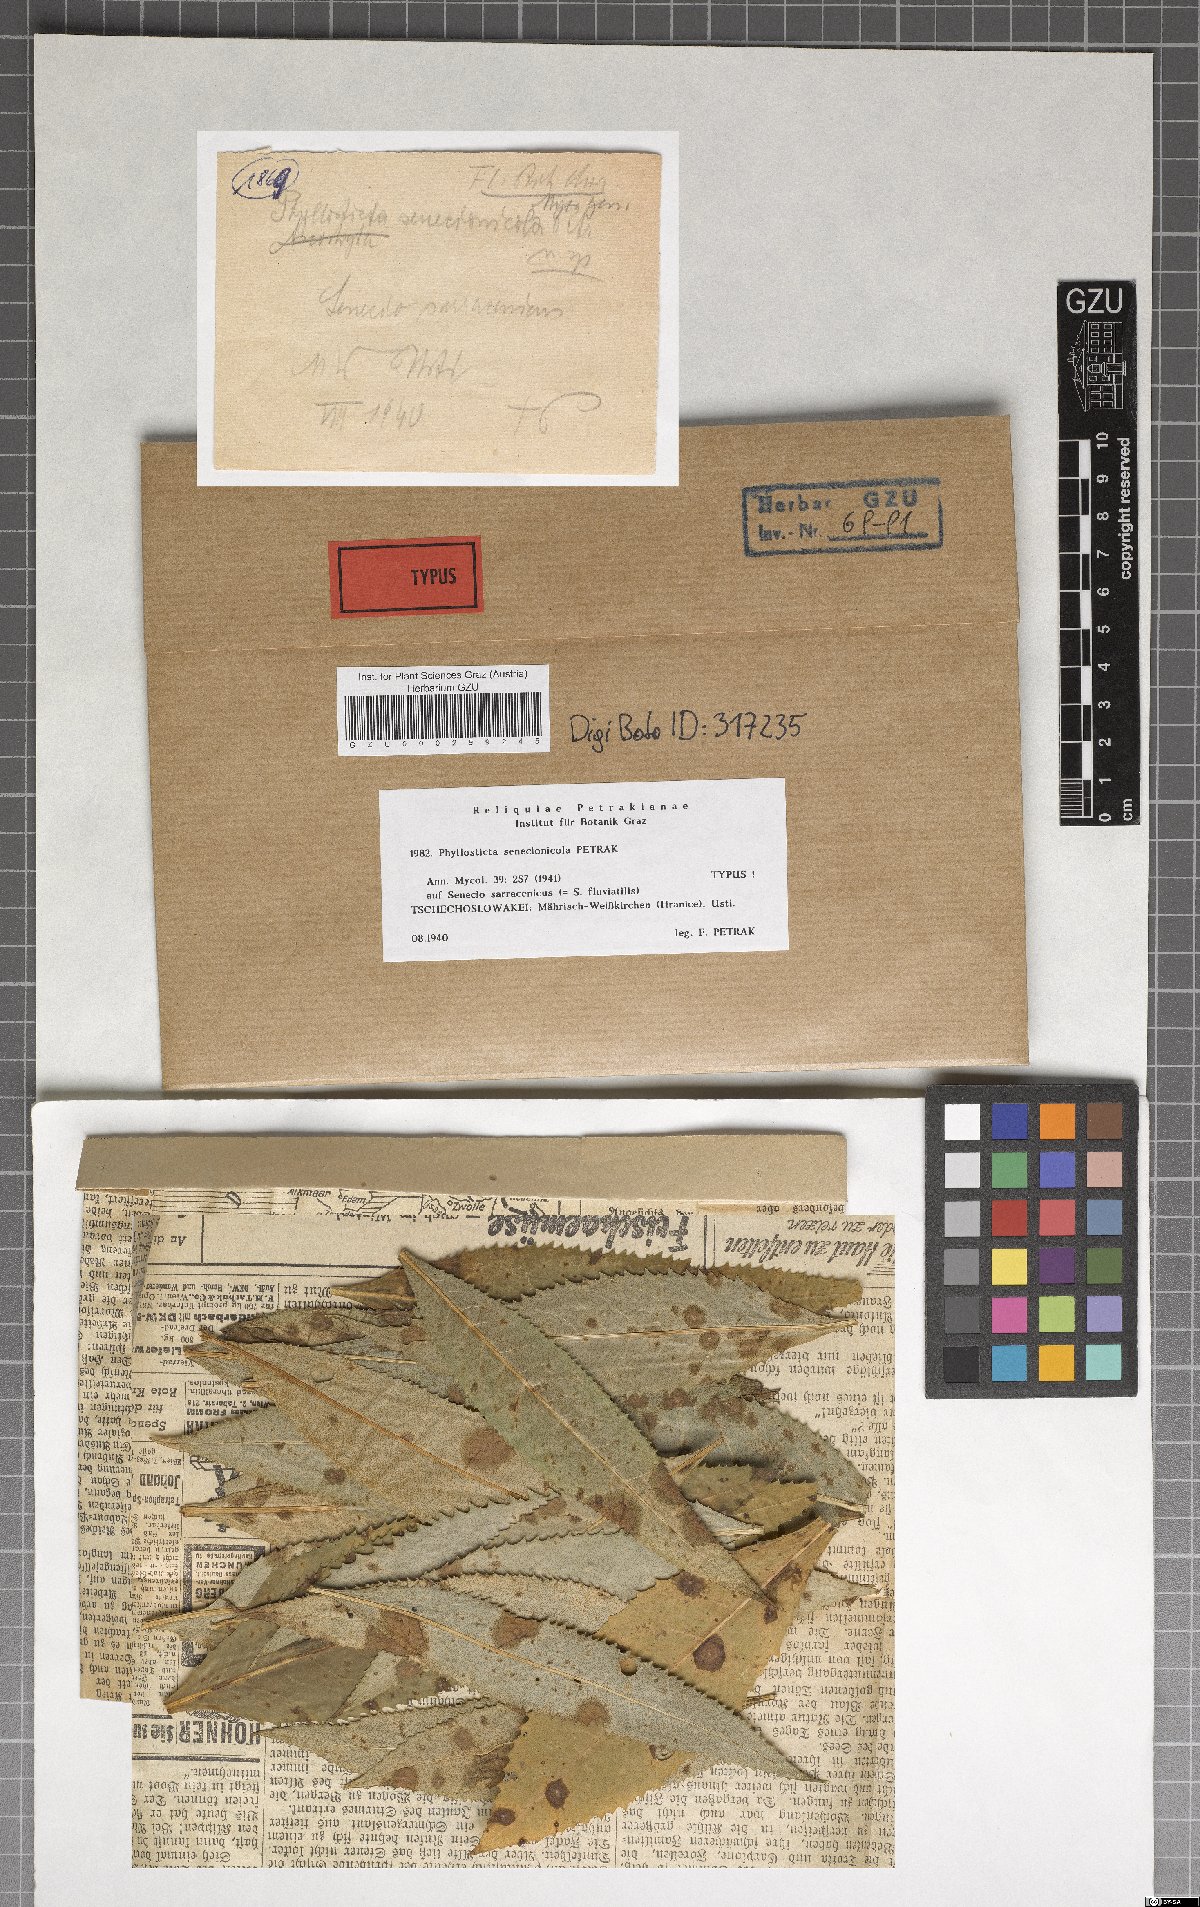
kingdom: Fungi
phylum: Ascomycota
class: Dothideomycetes
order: Botryosphaeriales
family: Phyllostictaceae
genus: Phyllosticta
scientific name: Phyllosticta senecionicola
